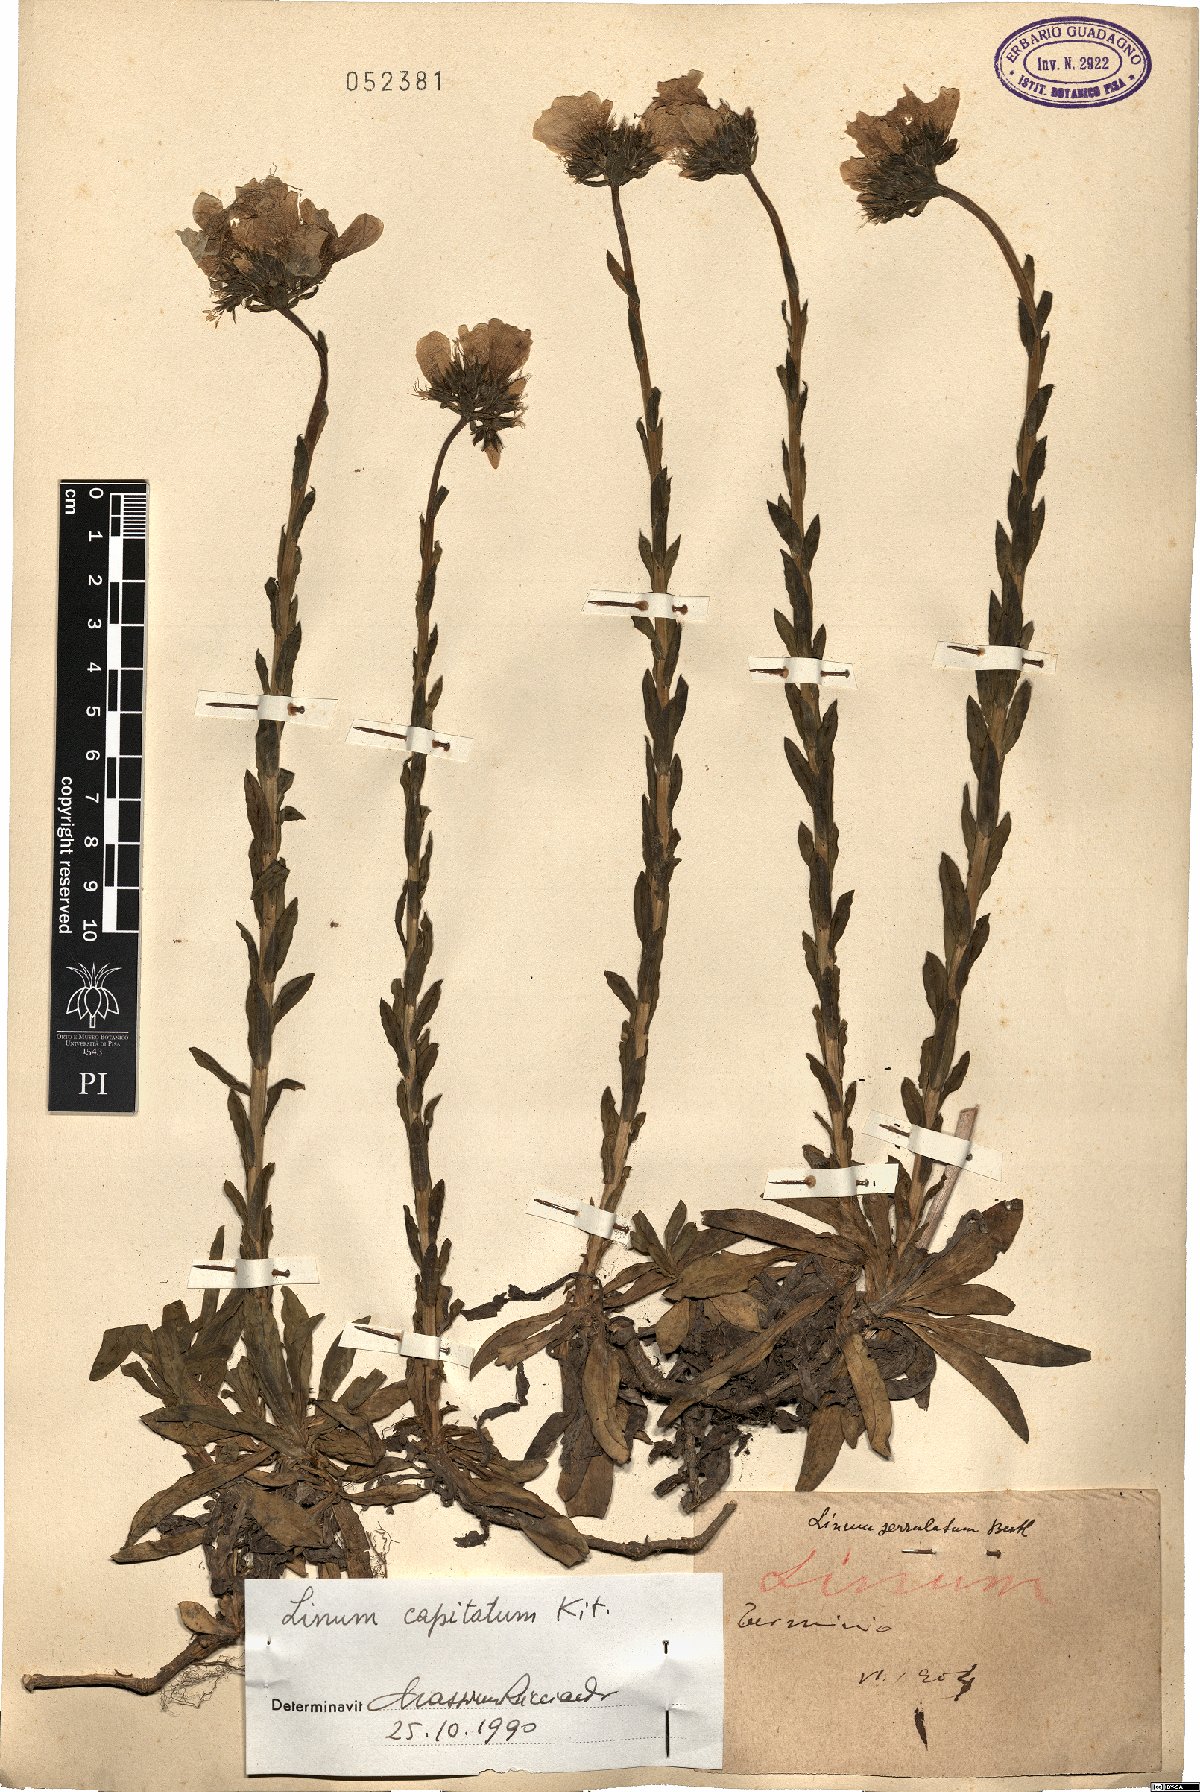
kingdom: Plantae
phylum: Tracheophyta
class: Magnoliopsida
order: Malpighiales
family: Linaceae
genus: Linum
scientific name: Linum capitatum
